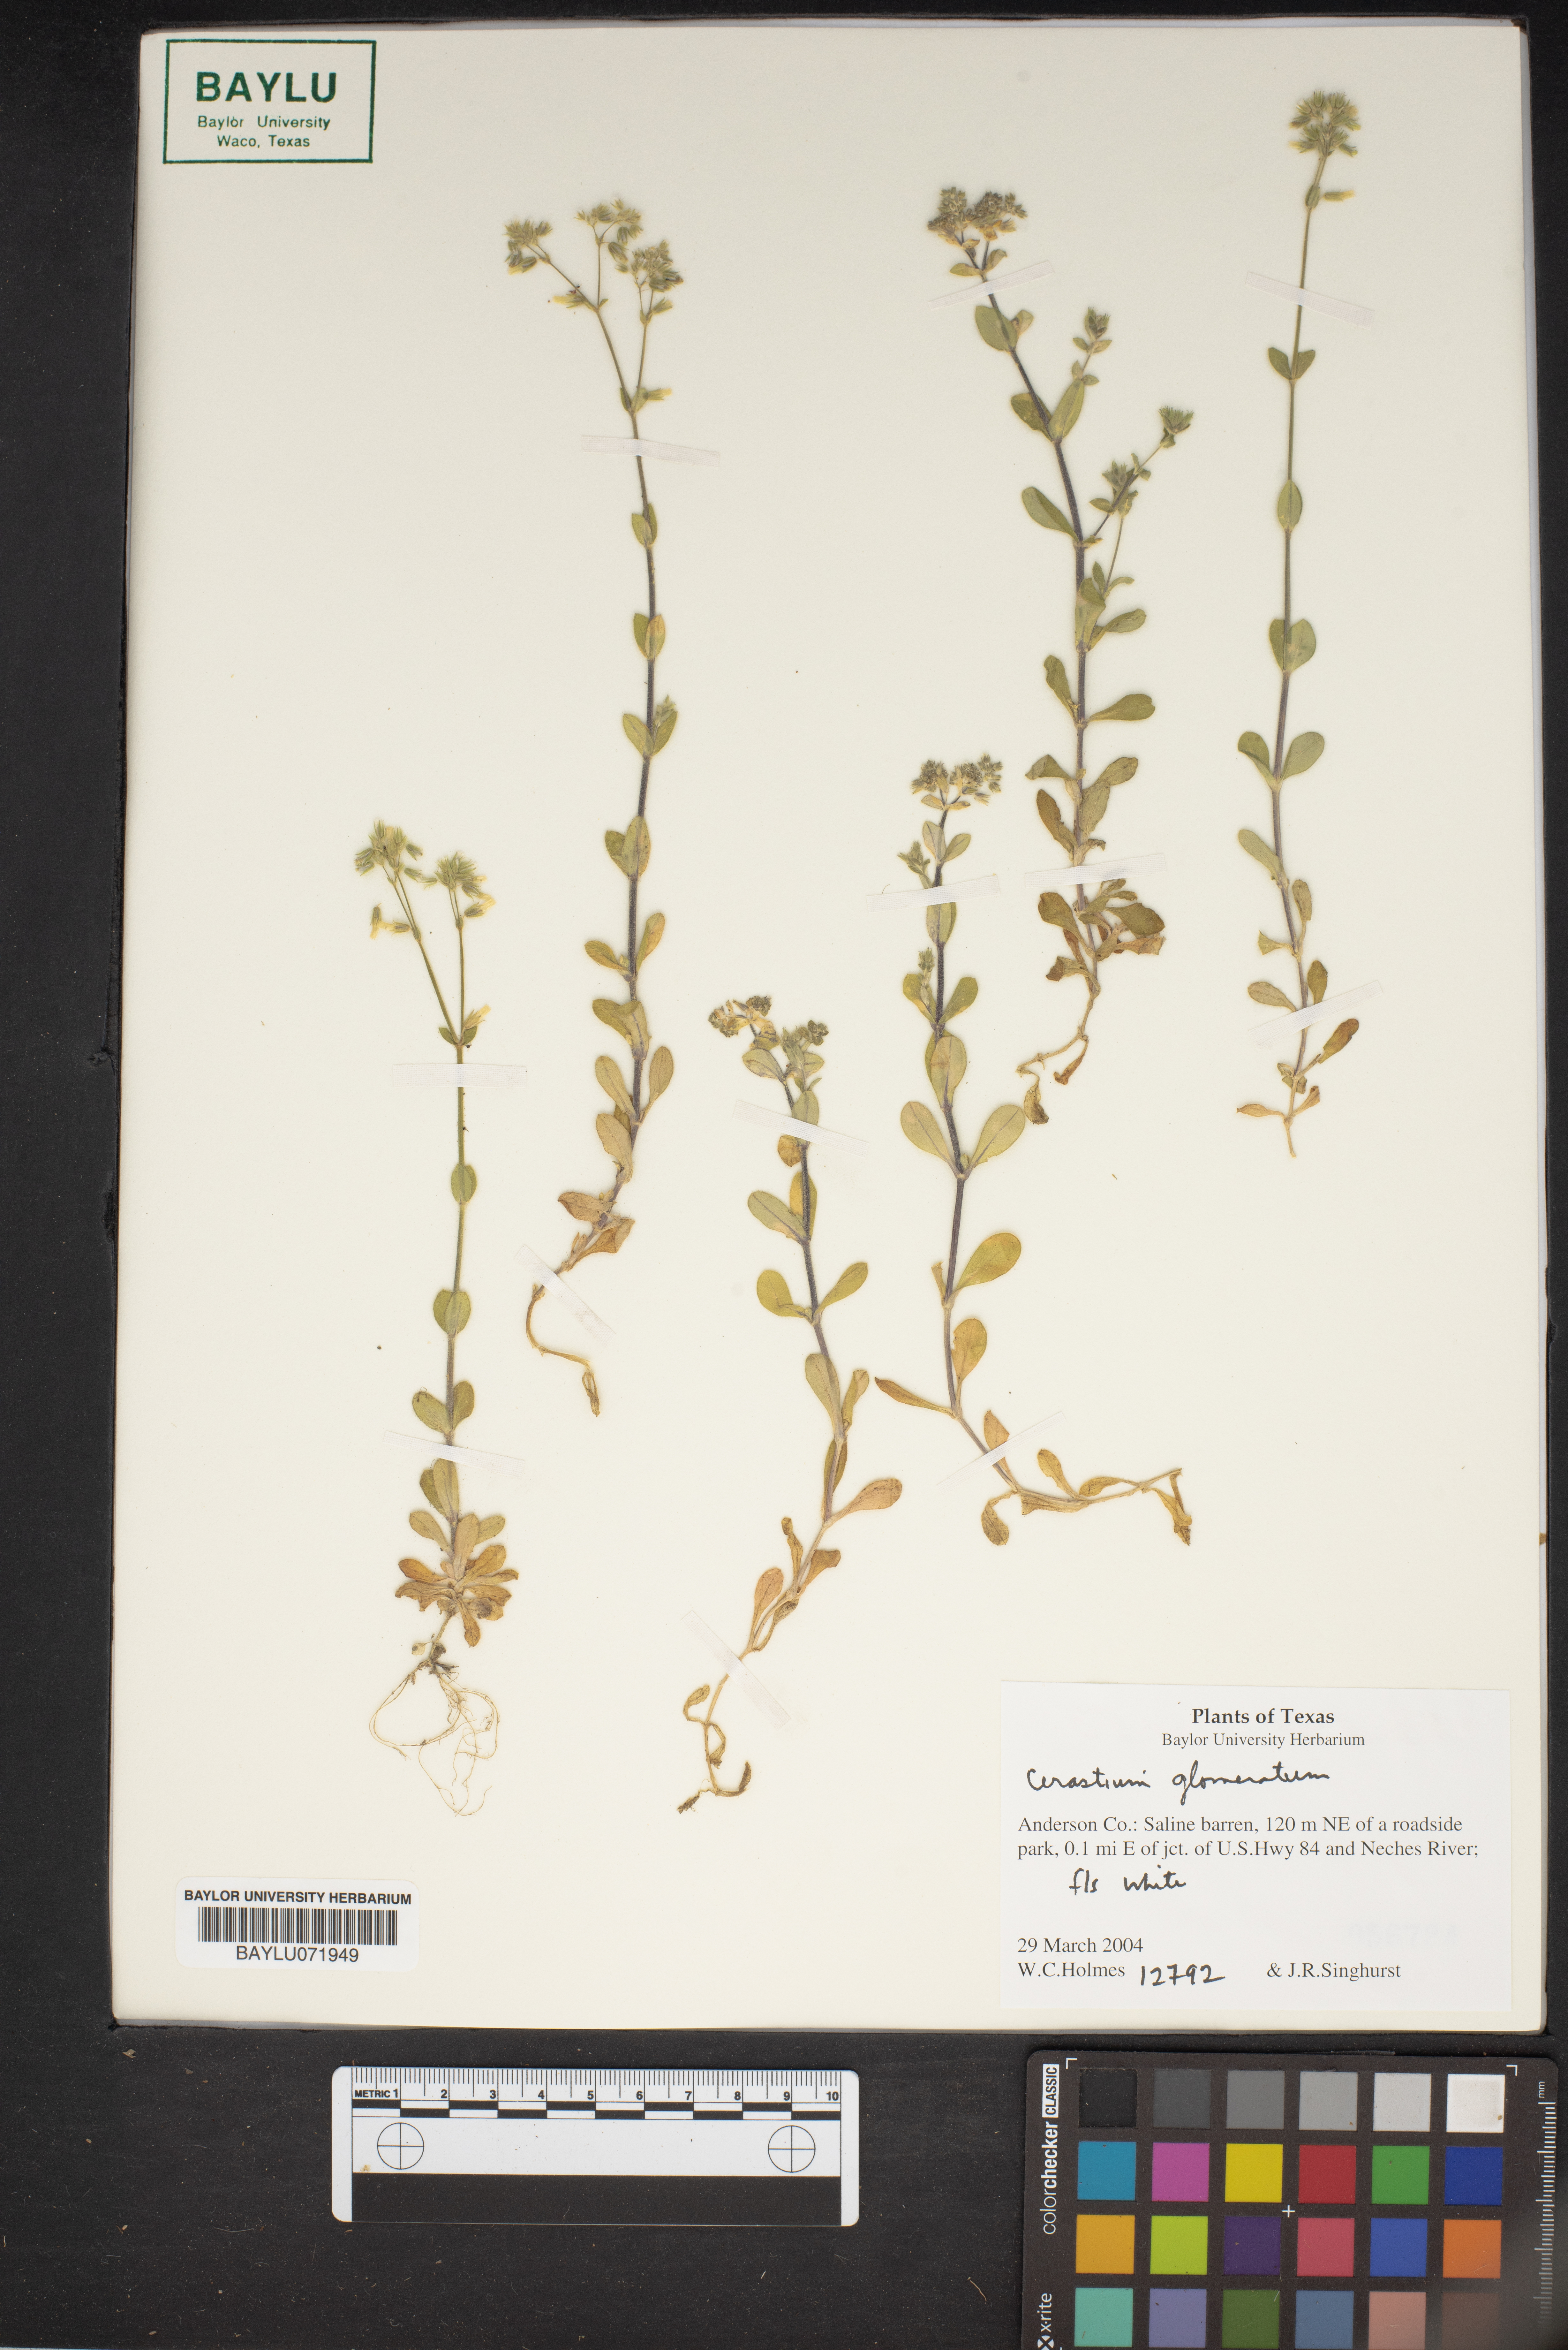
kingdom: Plantae
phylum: Tracheophyta
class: Magnoliopsida
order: Caryophyllales
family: Caryophyllaceae
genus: Cerastium
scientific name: Cerastium glomeratum
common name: Sticky chickweed
